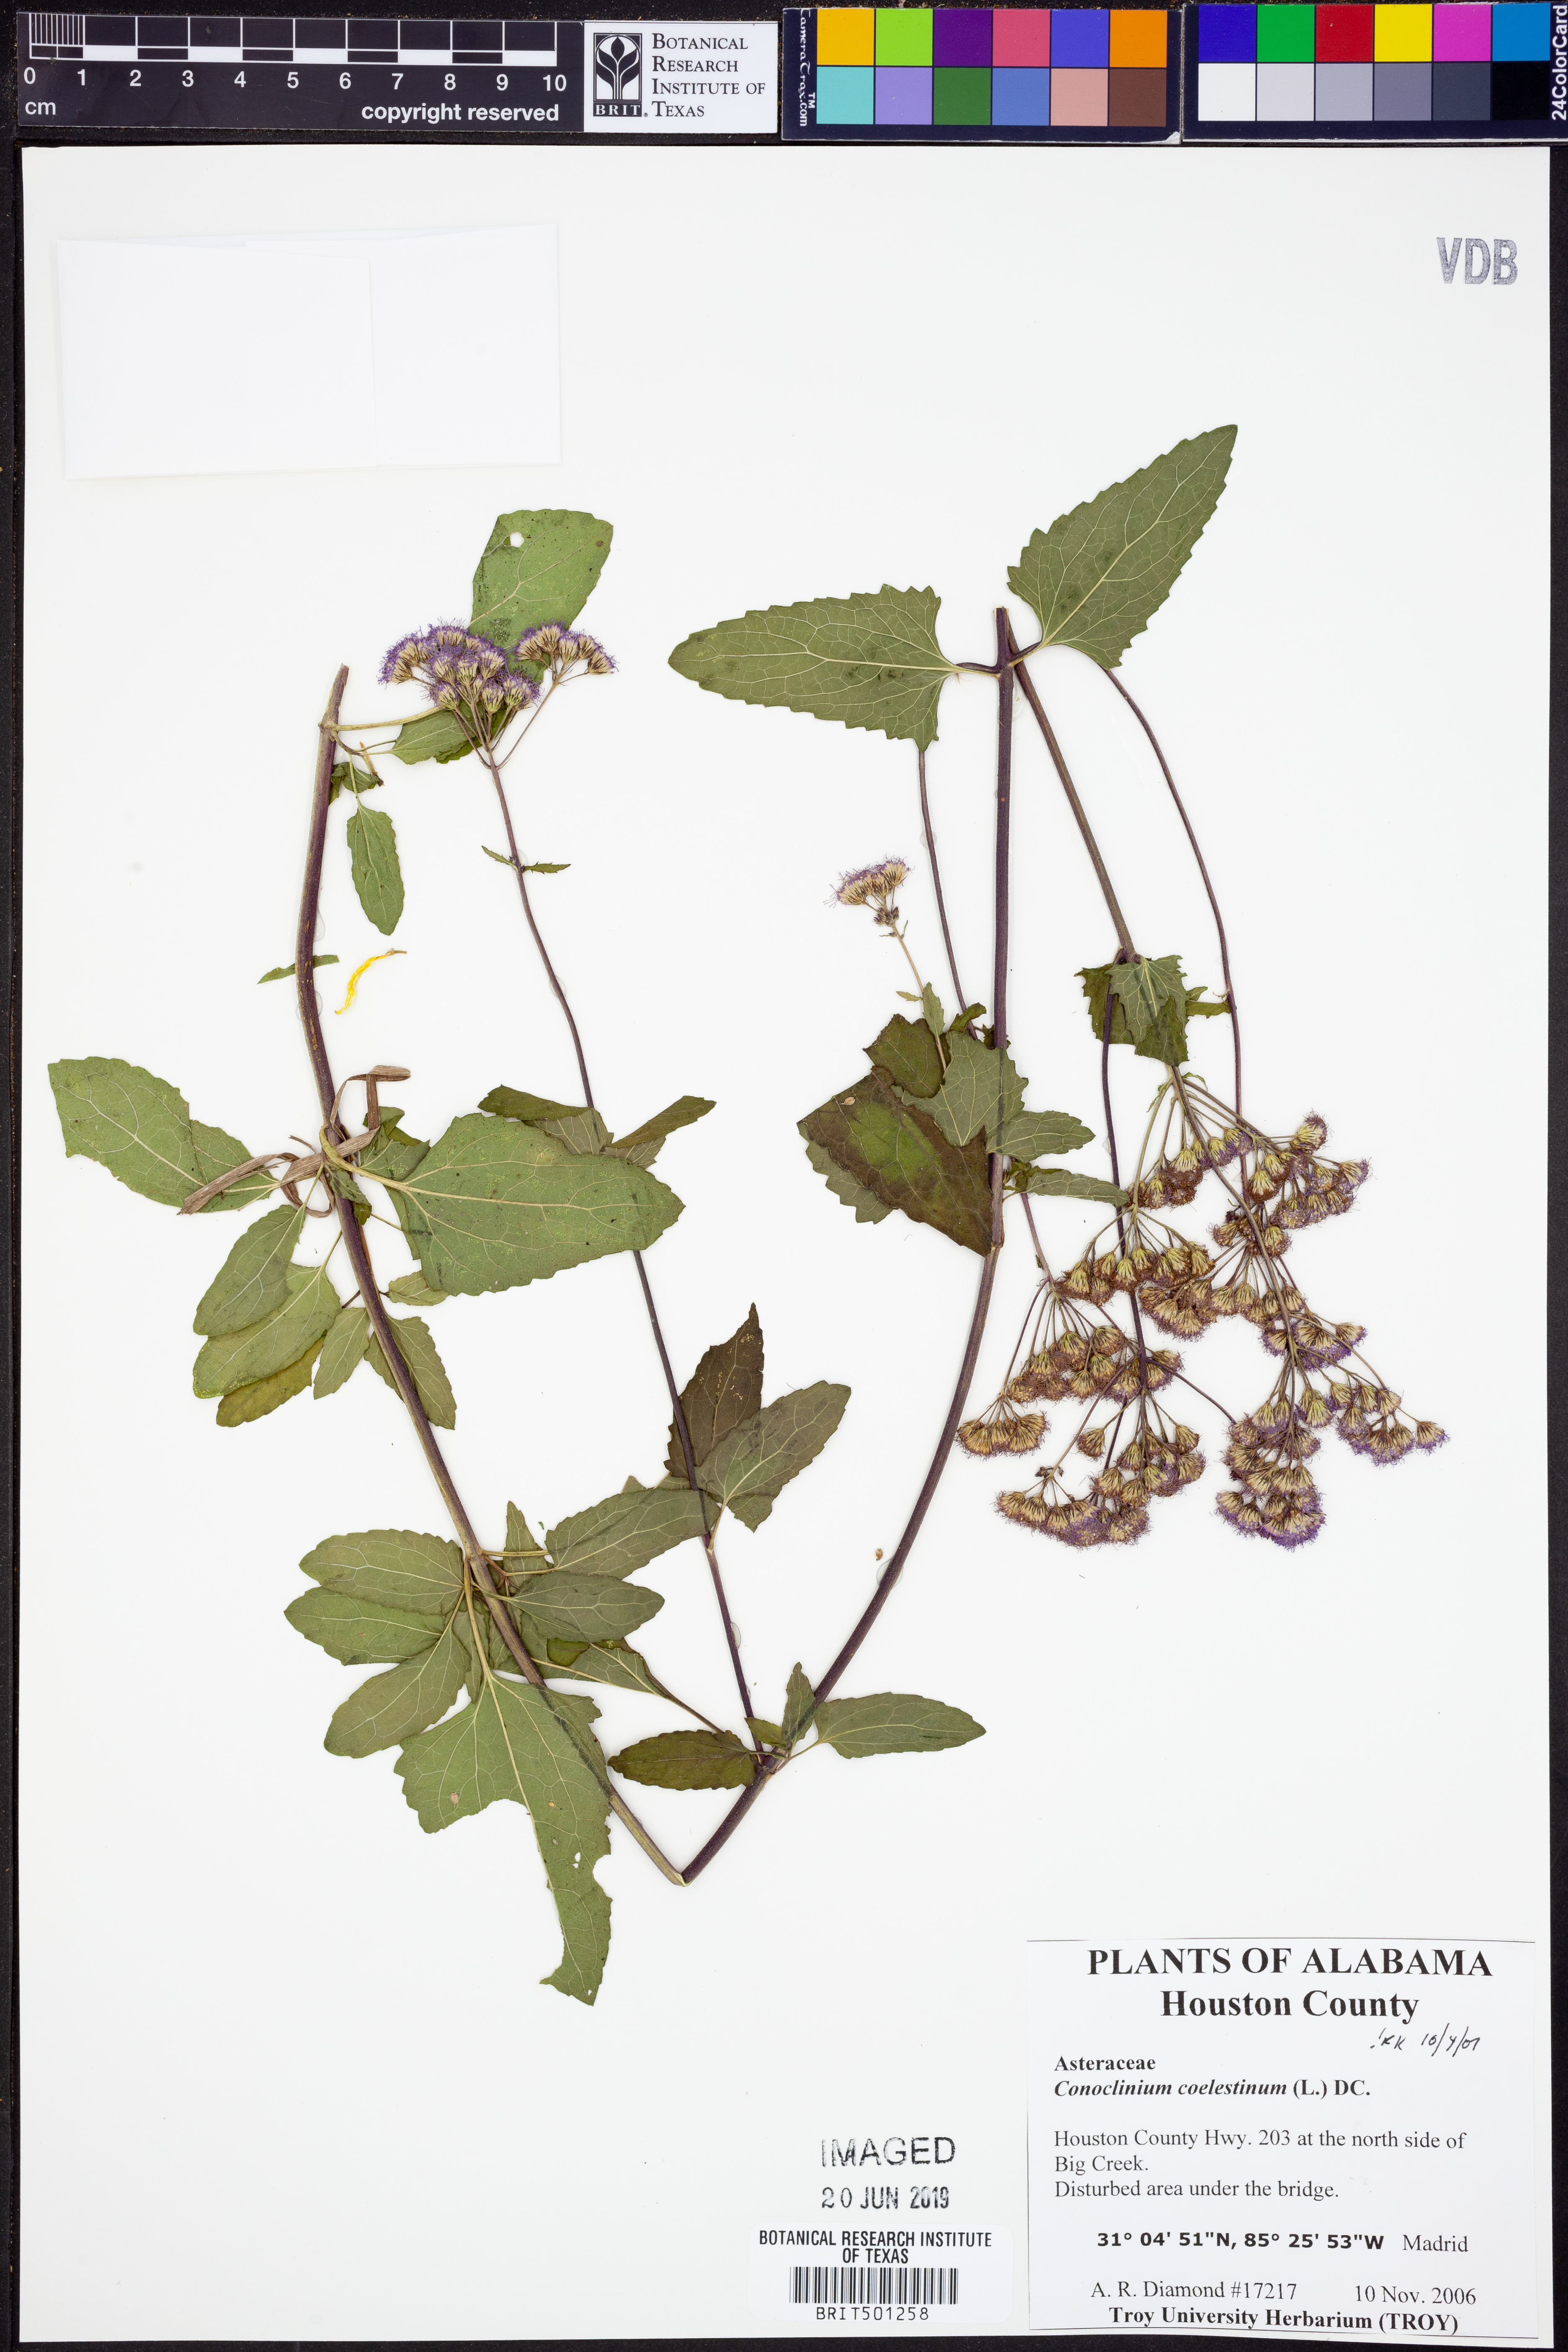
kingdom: Plantae
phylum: Tracheophyta
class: Magnoliopsida
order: Asterales
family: Asteraceae
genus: Conoclinium
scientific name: Conoclinium coelestinum
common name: Blue mistflower
